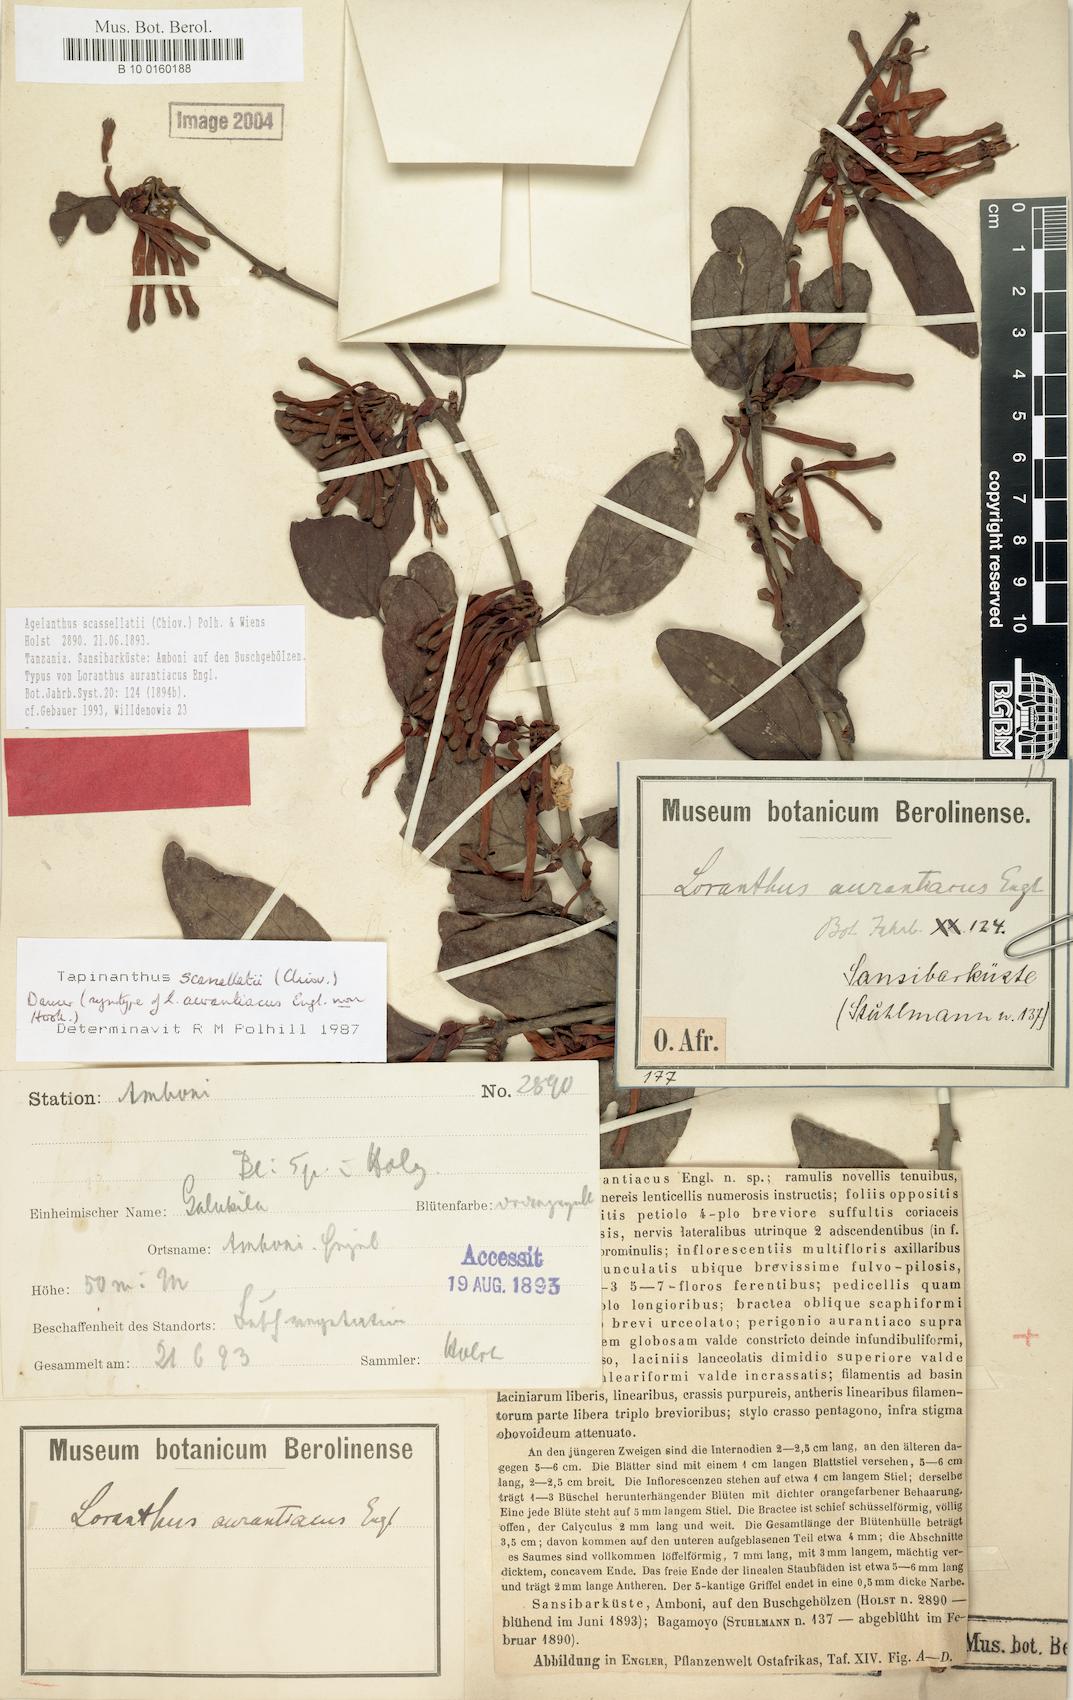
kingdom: Plantae
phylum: Tracheophyta
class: Magnoliopsida
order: Santalales
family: Loranthaceae
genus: Agelanthus
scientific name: Agelanthus heteromorphus
